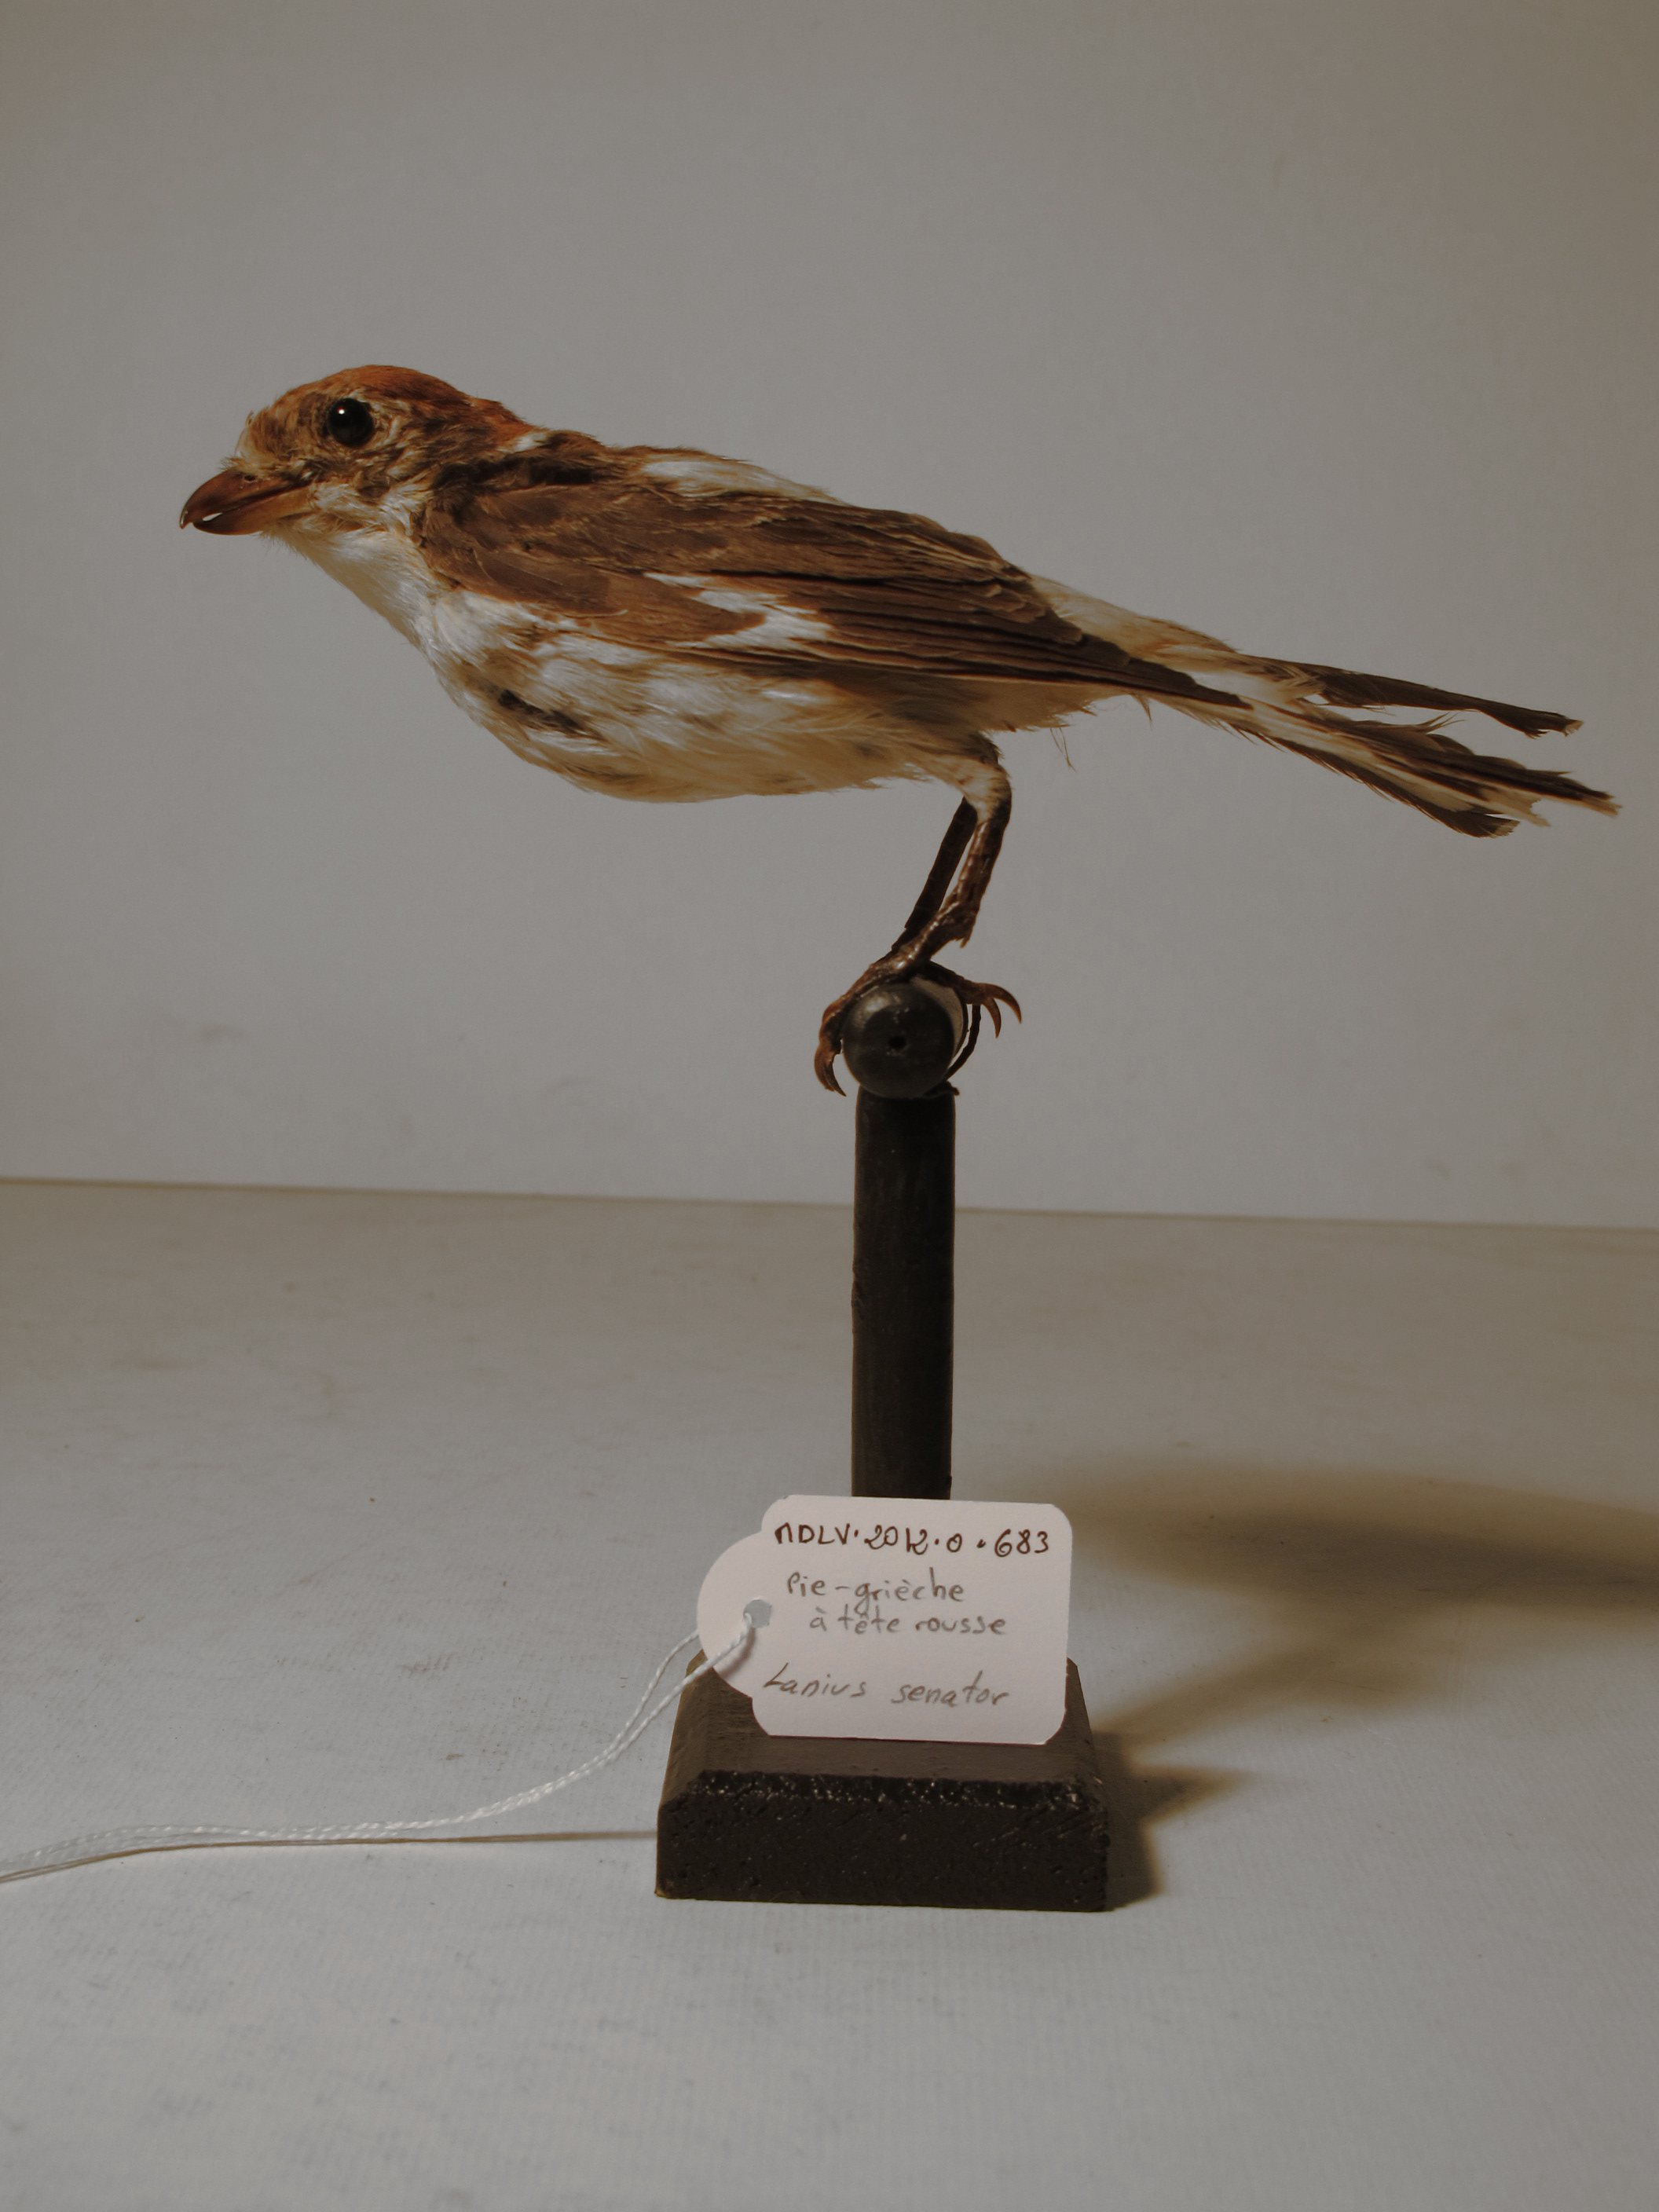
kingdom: Animalia
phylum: Chordata
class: Aves
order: Passeriformes
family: Laniidae
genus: Lanius
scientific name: Lanius senator
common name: Woodchat Shrike
